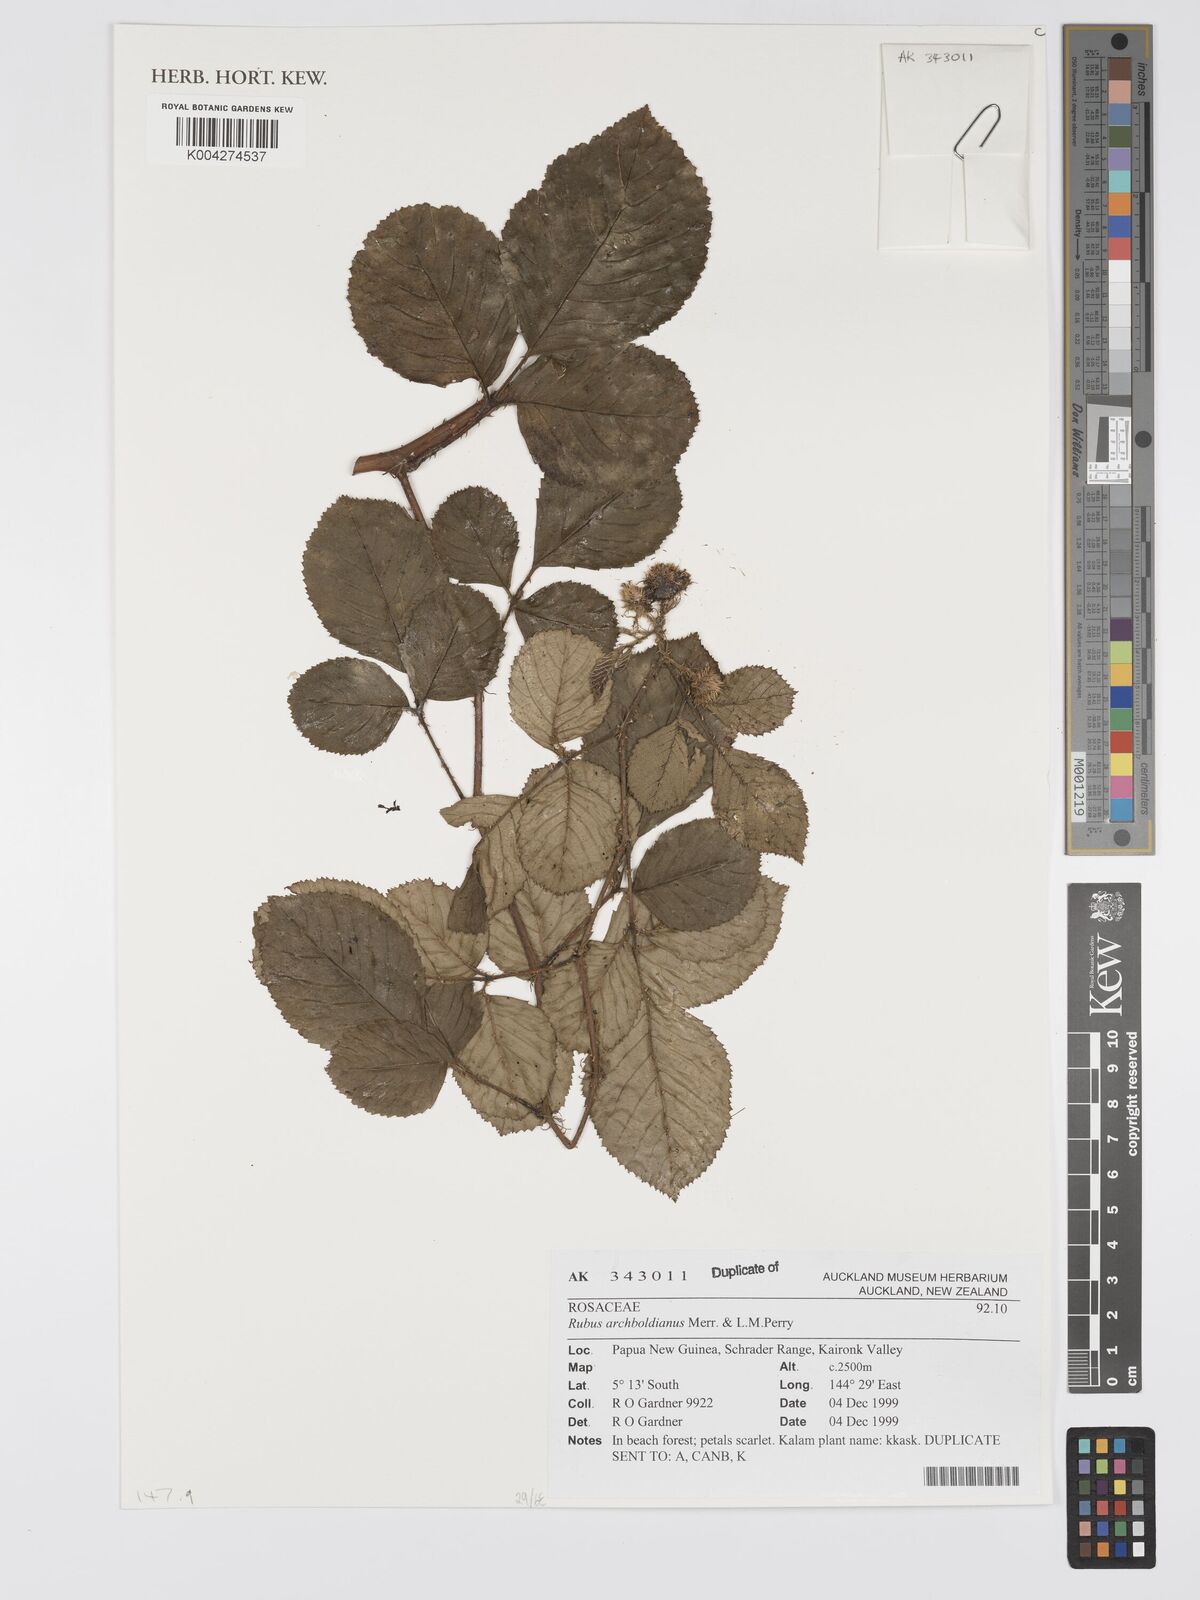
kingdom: Plantae
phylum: Tracheophyta
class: Magnoliopsida
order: Rosales
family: Rosaceae
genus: Rubus
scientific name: Rubus archboldianus
